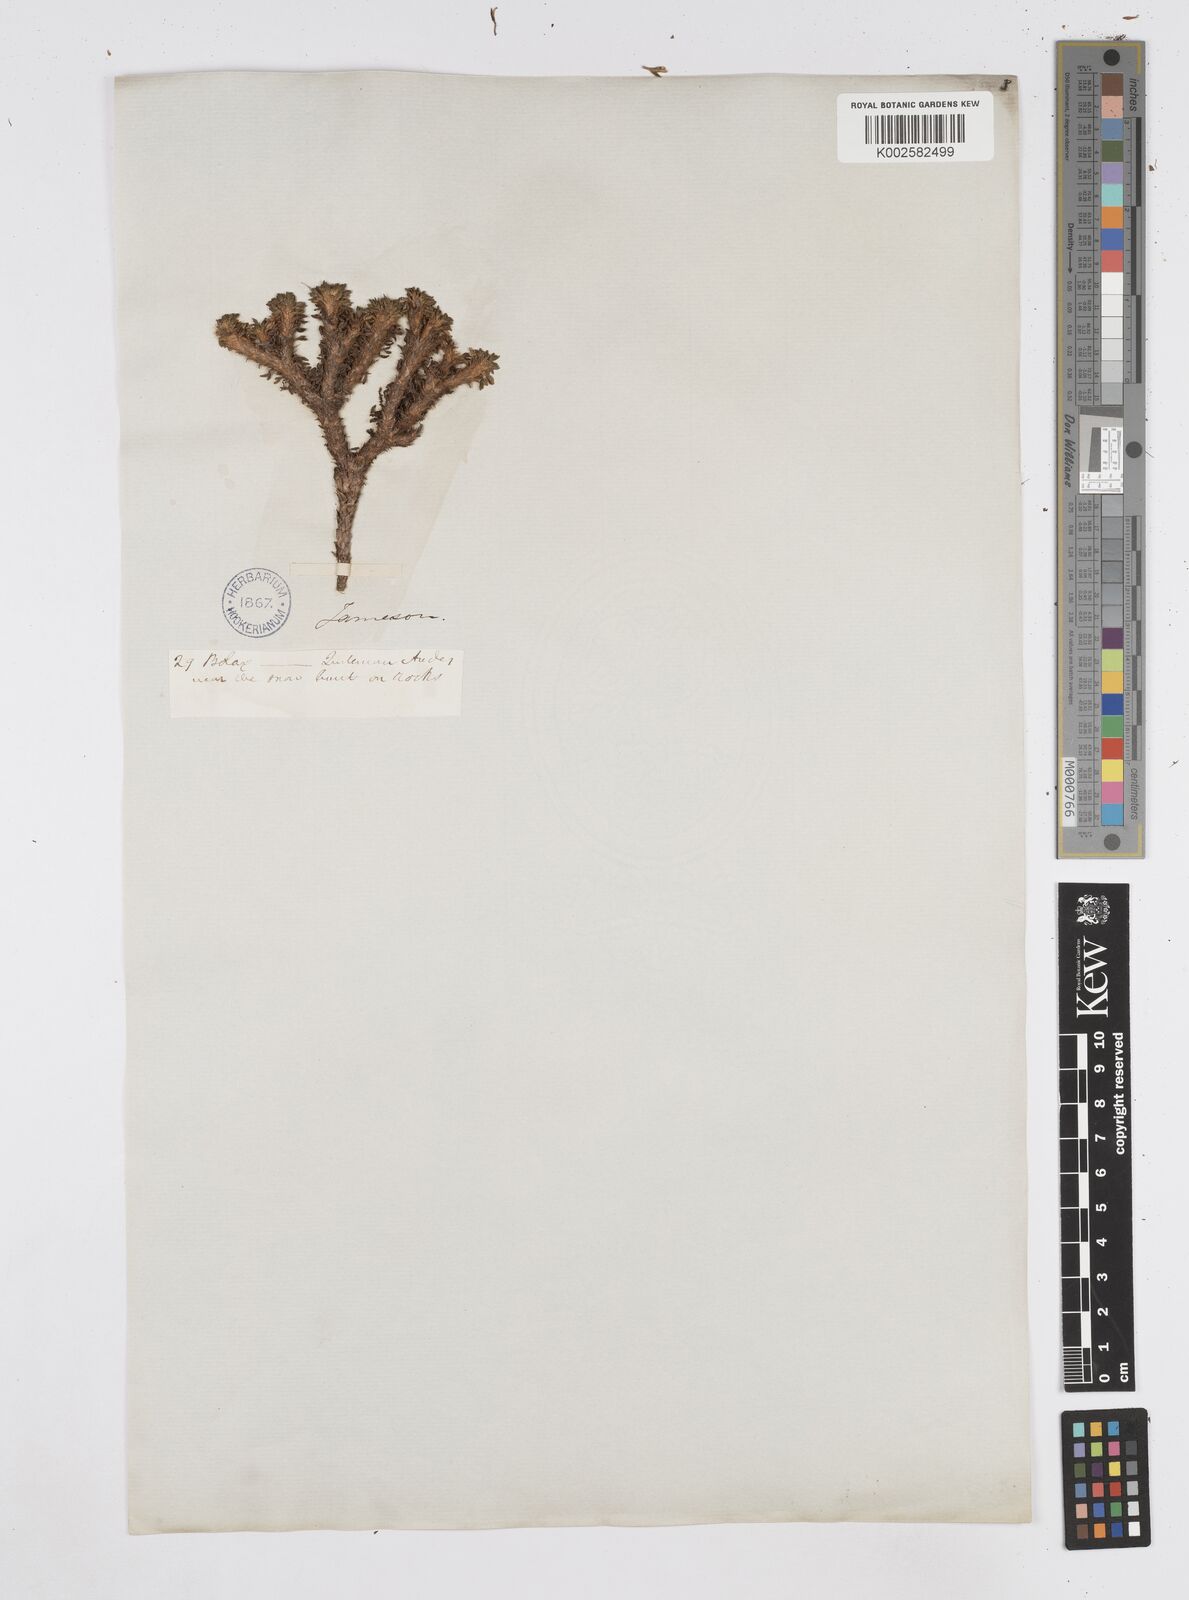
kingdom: Plantae
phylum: Tracheophyta
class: Magnoliopsida
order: Apiales
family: Apiaceae
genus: Azorella
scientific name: Azorella aretioides
